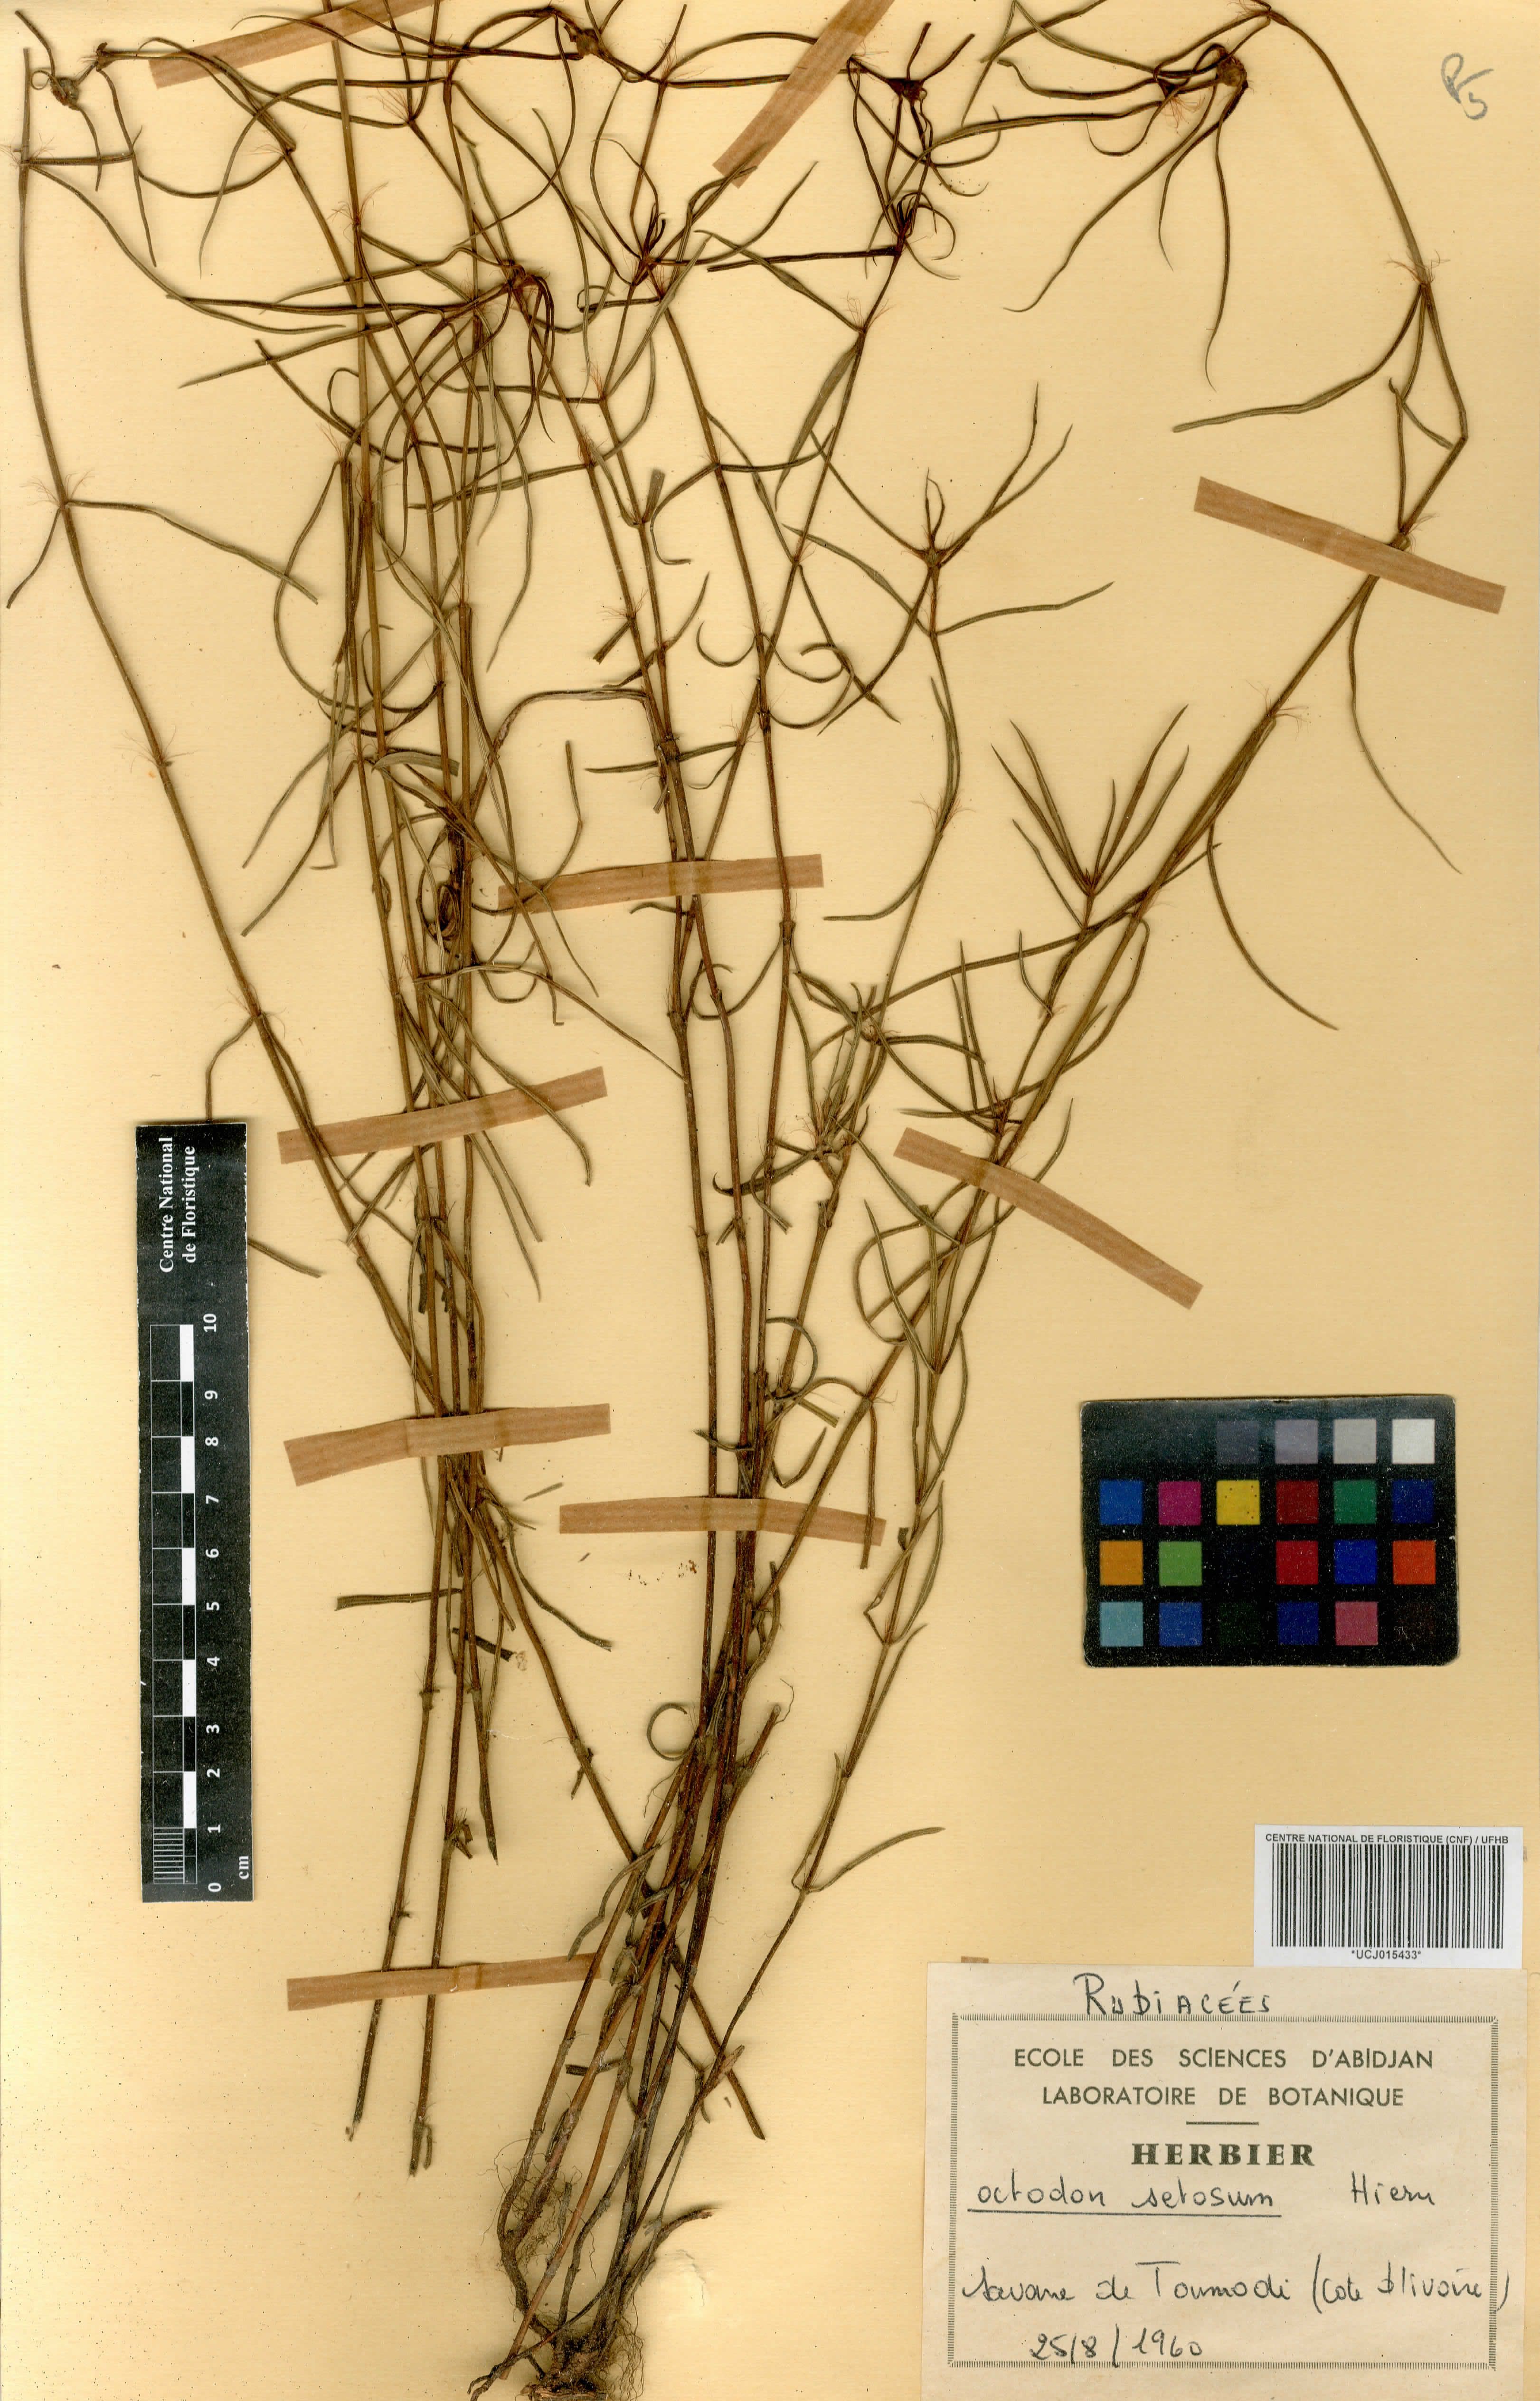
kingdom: Plantae
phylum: Tracheophyta
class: Magnoliopsida
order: Gentianales
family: Rubiaceae
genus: Spermacoce
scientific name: Spermacoce octodon
